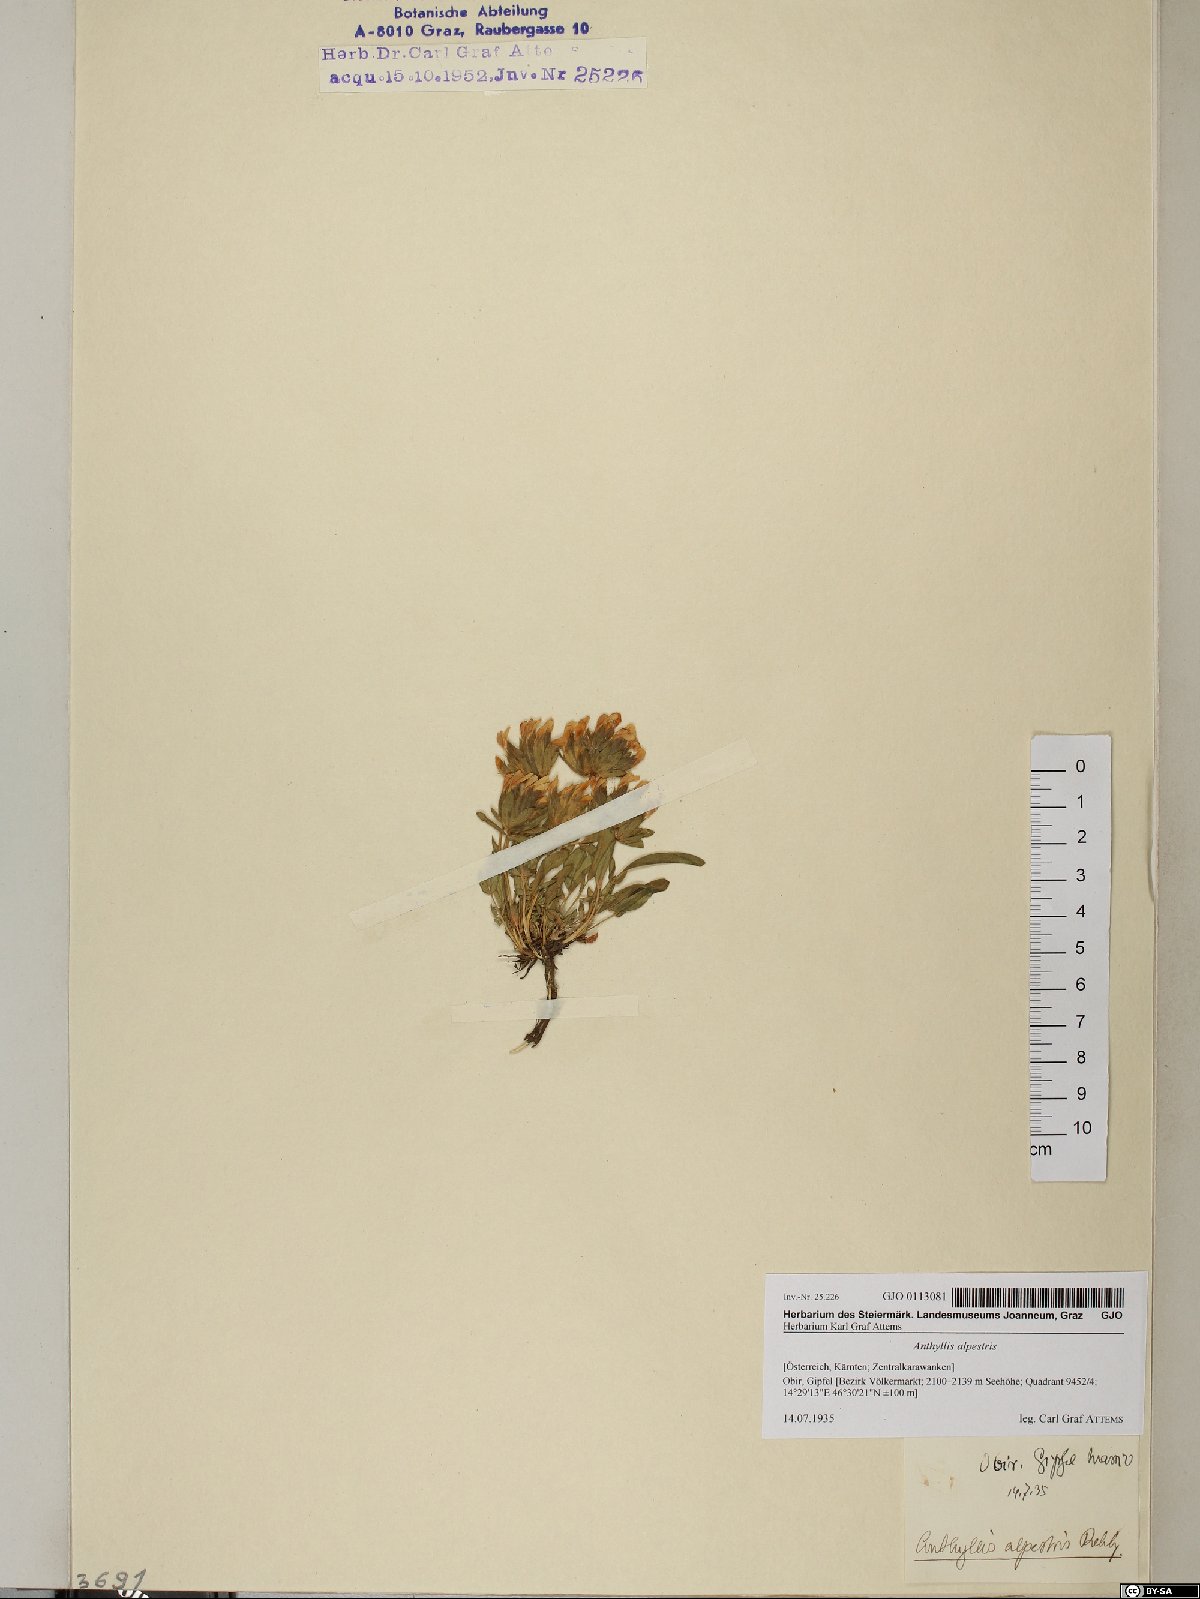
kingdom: Plantae
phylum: Tracheophyta
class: Magnoliopsida
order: Fabales
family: Fabaceae
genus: Anthyllis
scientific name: Anthyllis vulneraria
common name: Kidney vetch
